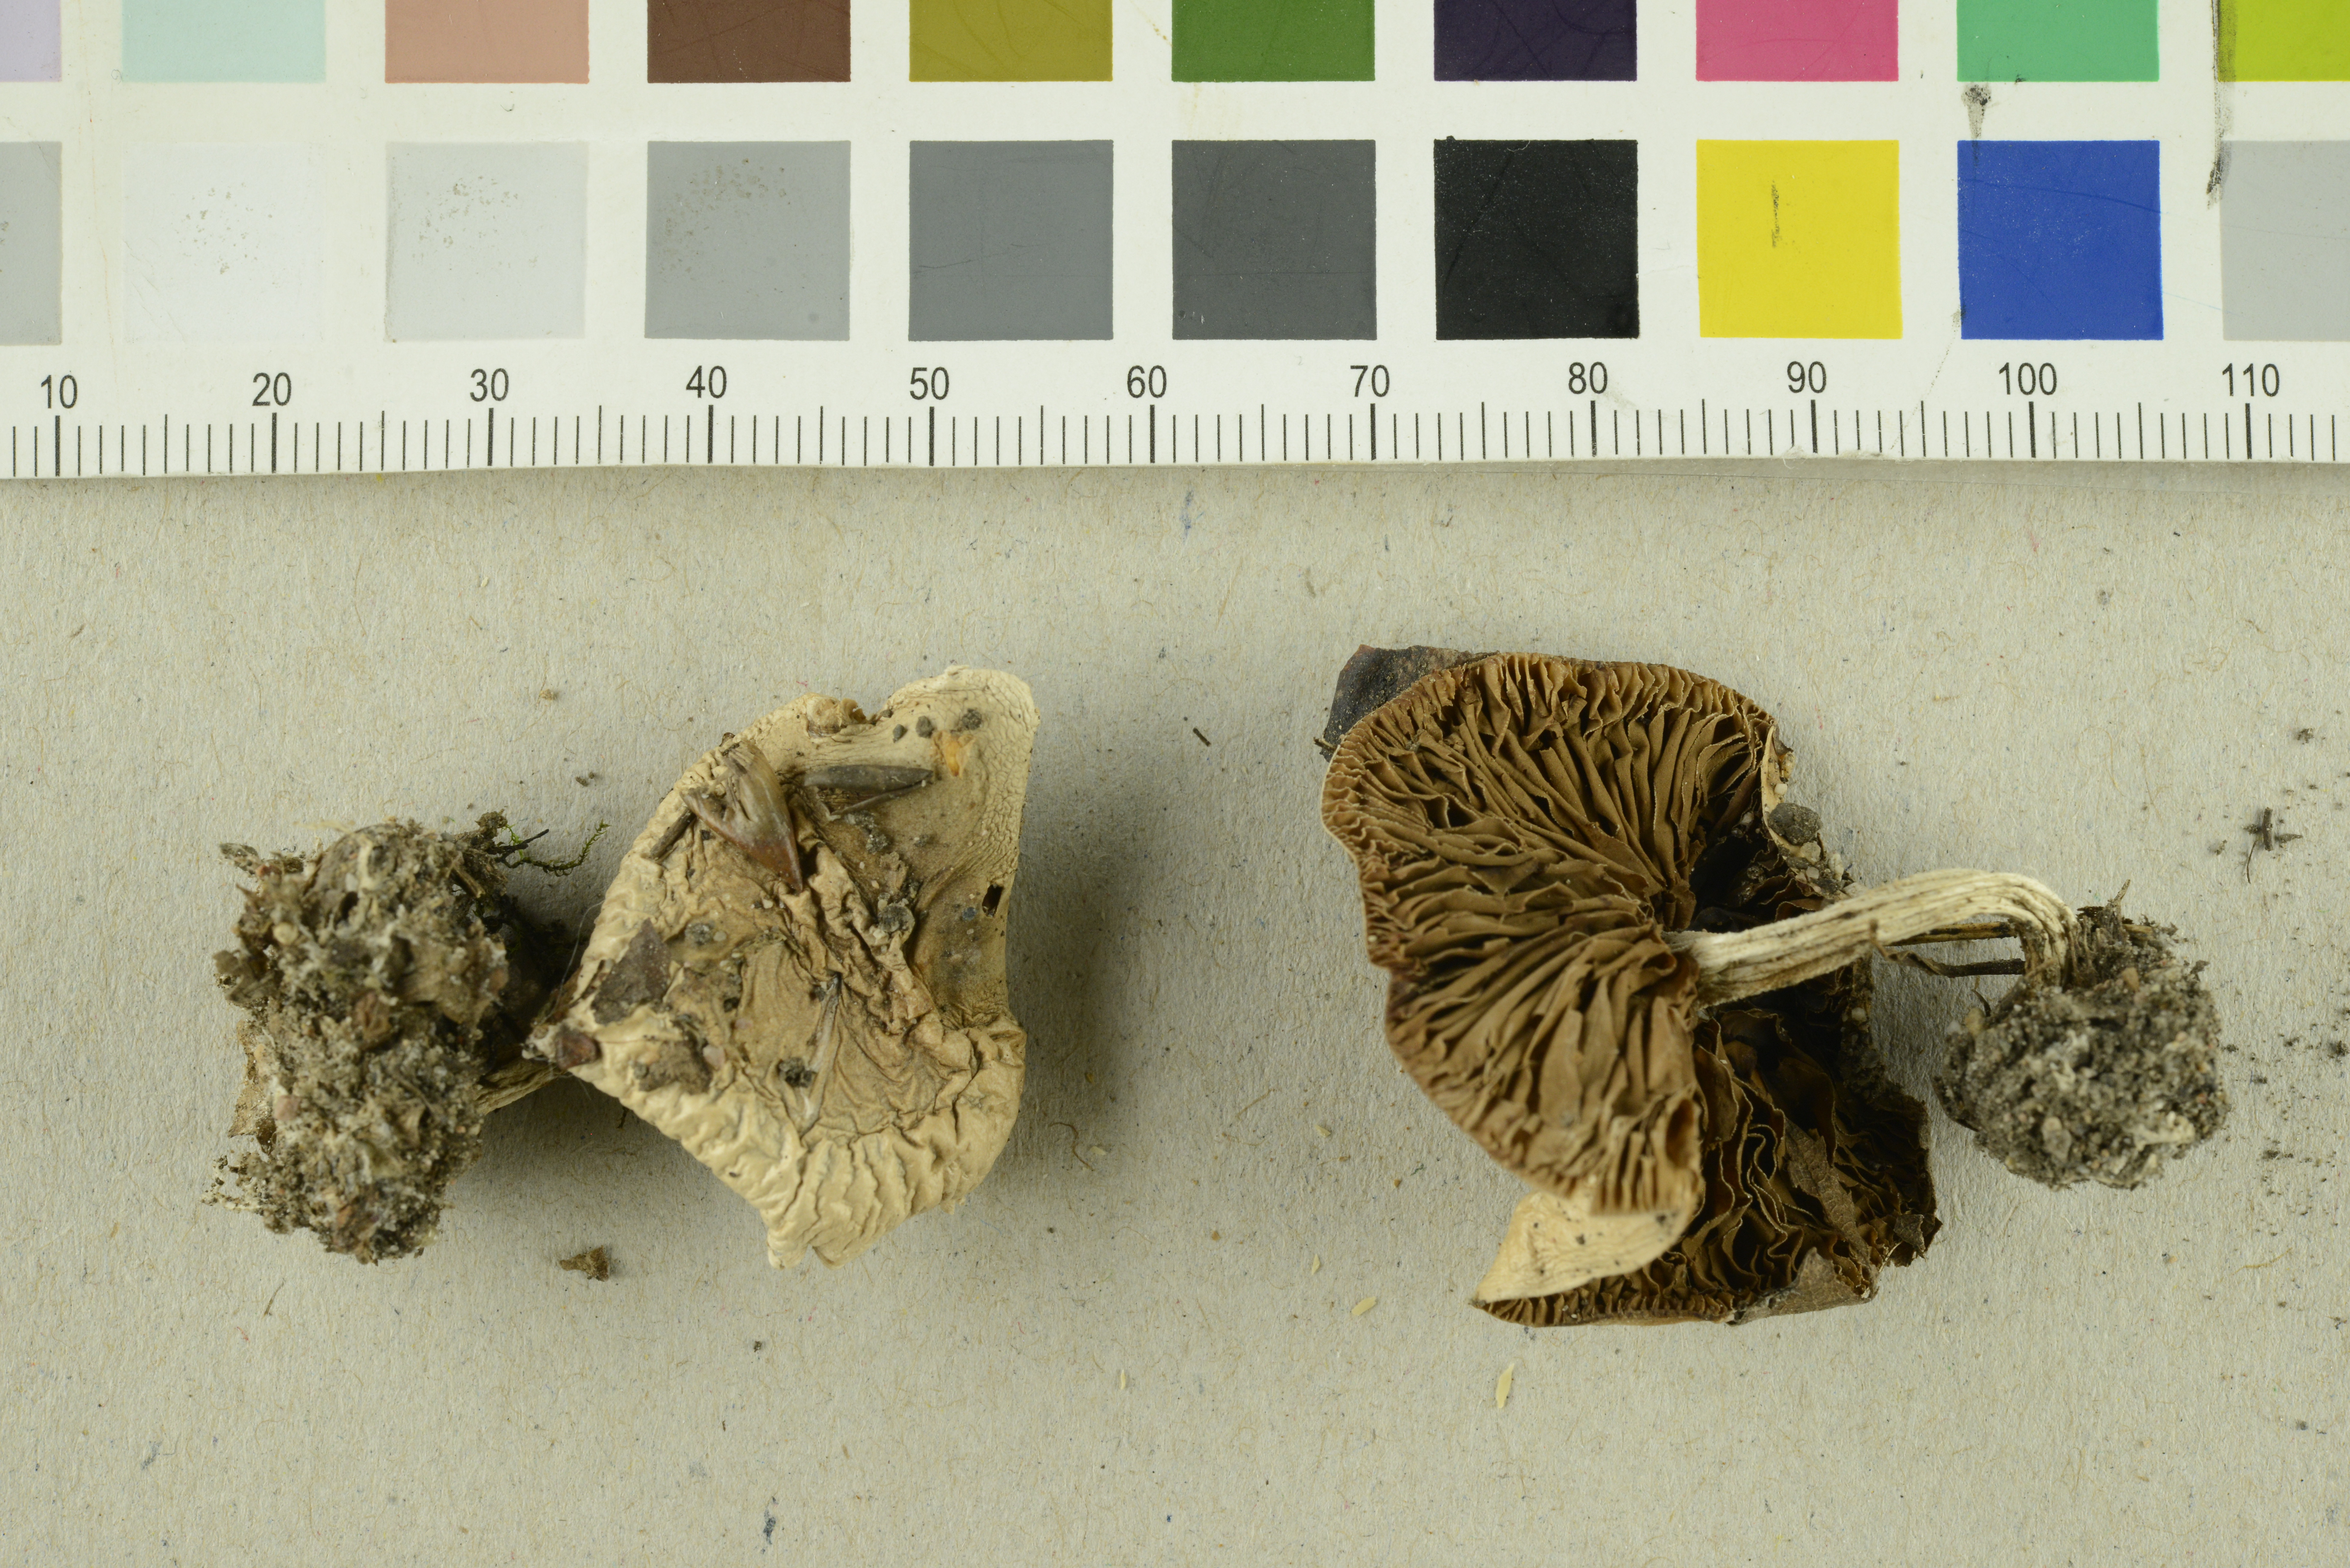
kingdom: Fungi
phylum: Basidiomycota
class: Agaricomycetes
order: Agaricales
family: Hymenogastraceae
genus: Hebeloma
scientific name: Hebeloma leucosarx
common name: Birch poisonpie
